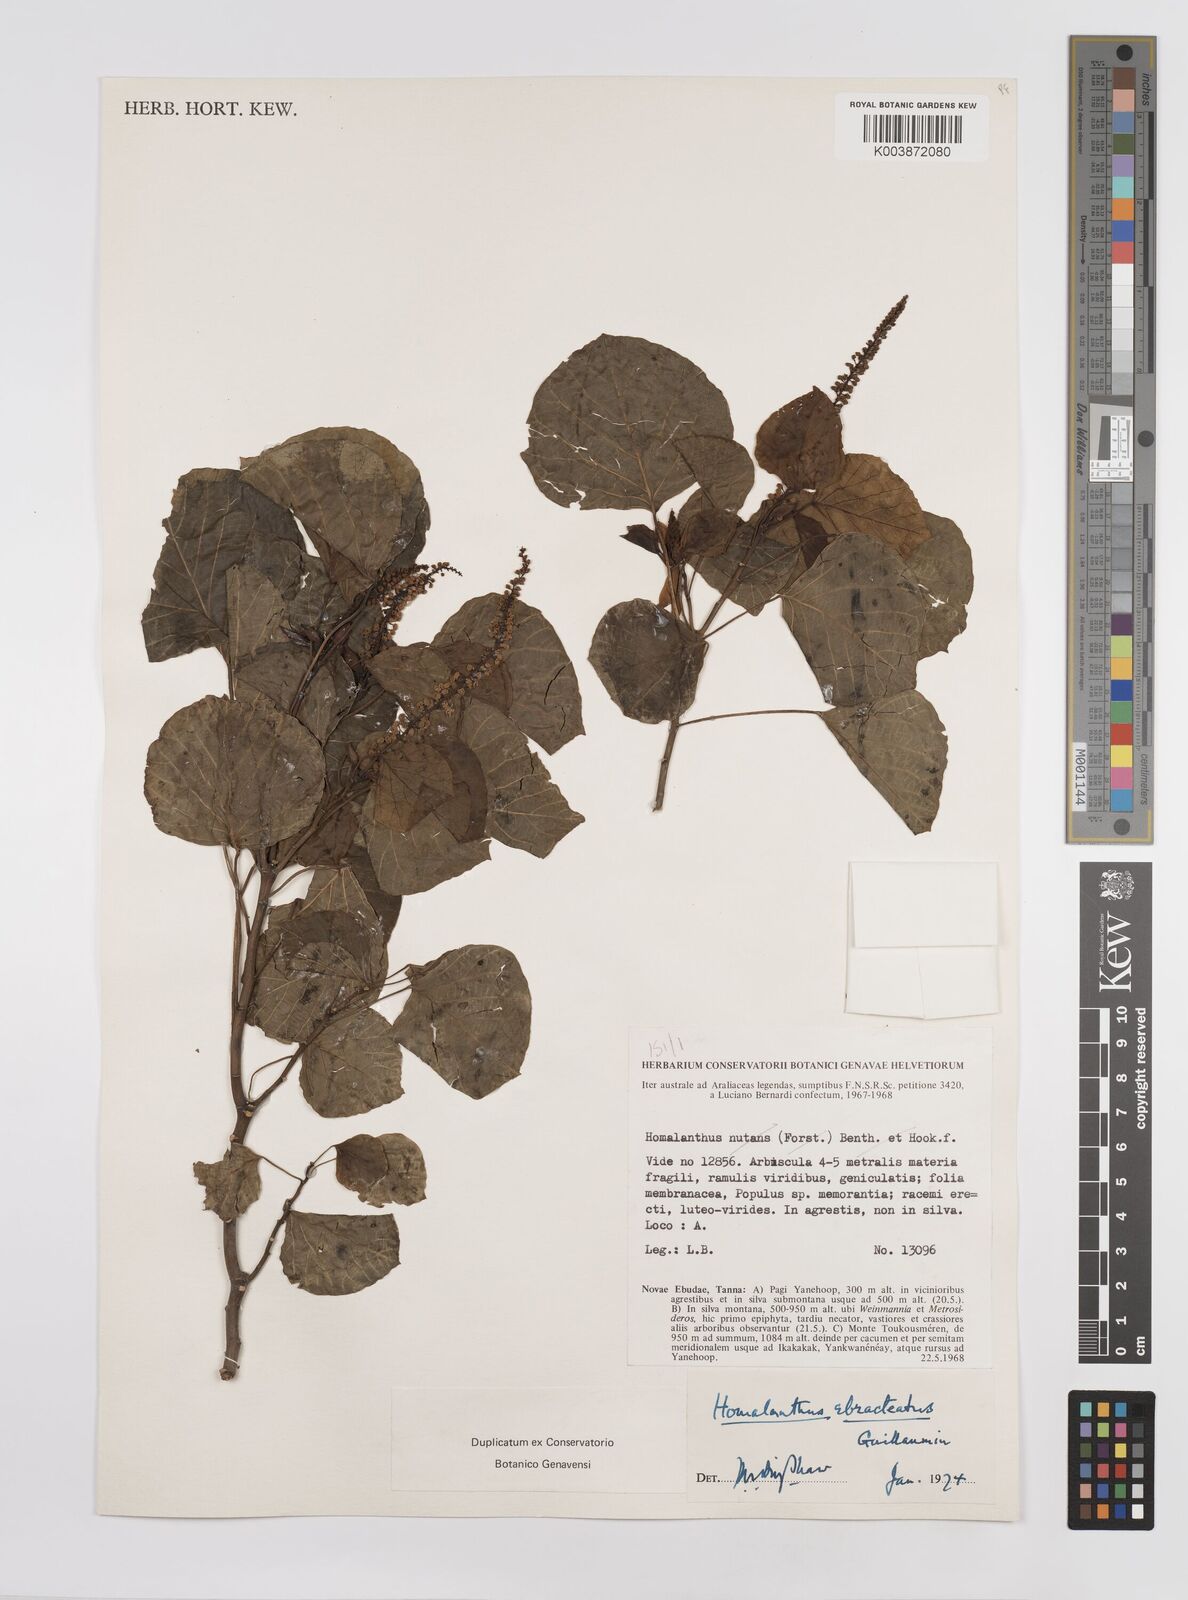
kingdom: Plantae
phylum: Tracheophyta
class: Magnoliopsida
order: Malpighiales
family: Euphorbiaceae
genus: Homalanthus
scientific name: Homalanthus ebracteatua
